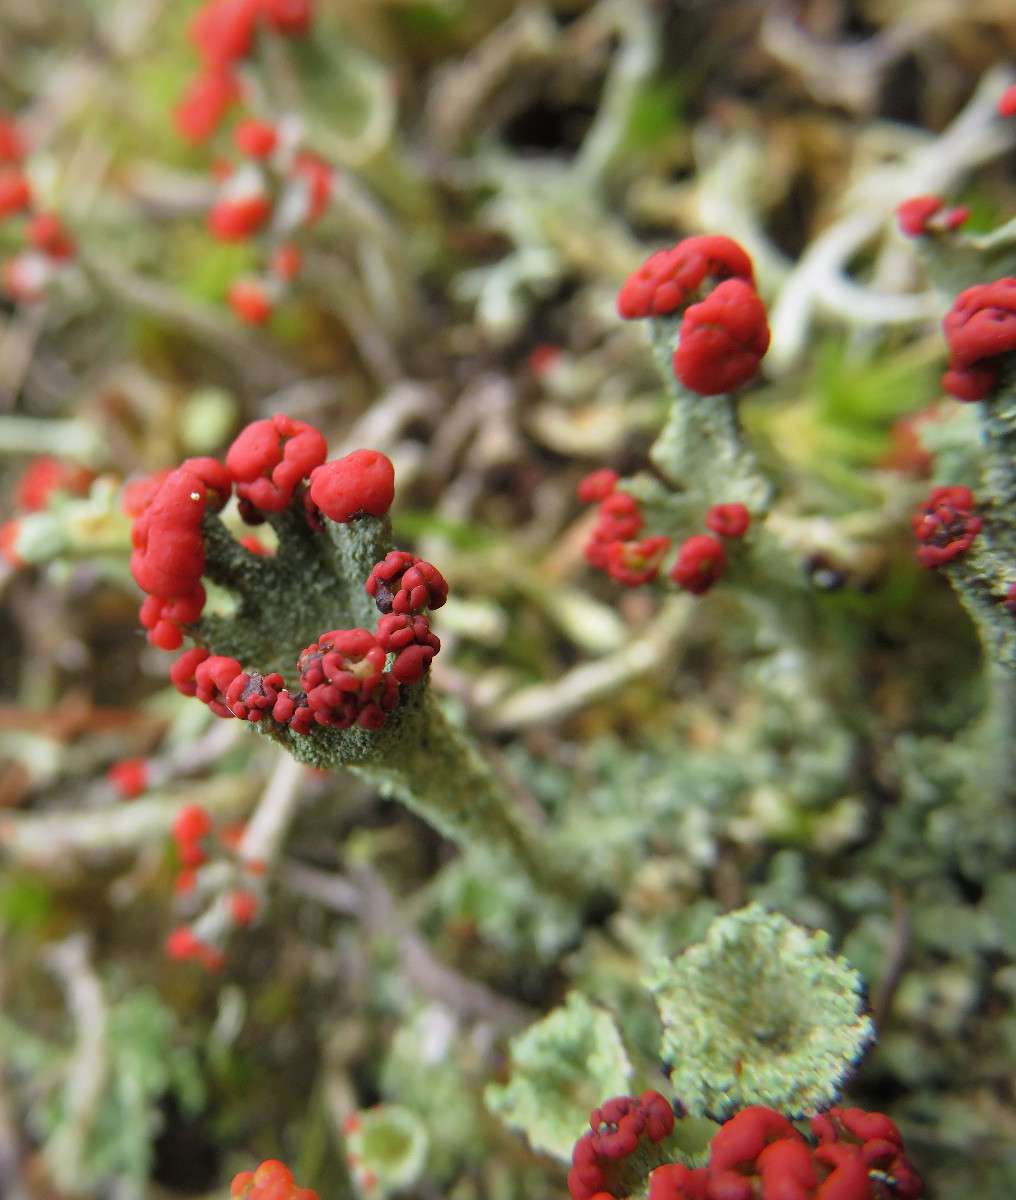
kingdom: Fungi
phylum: Ascomycota
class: Lecanoromycetes
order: Lecanorales
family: Cladoniaceae
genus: Cladonia
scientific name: Cladonia diversa
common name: rød bægerlav
